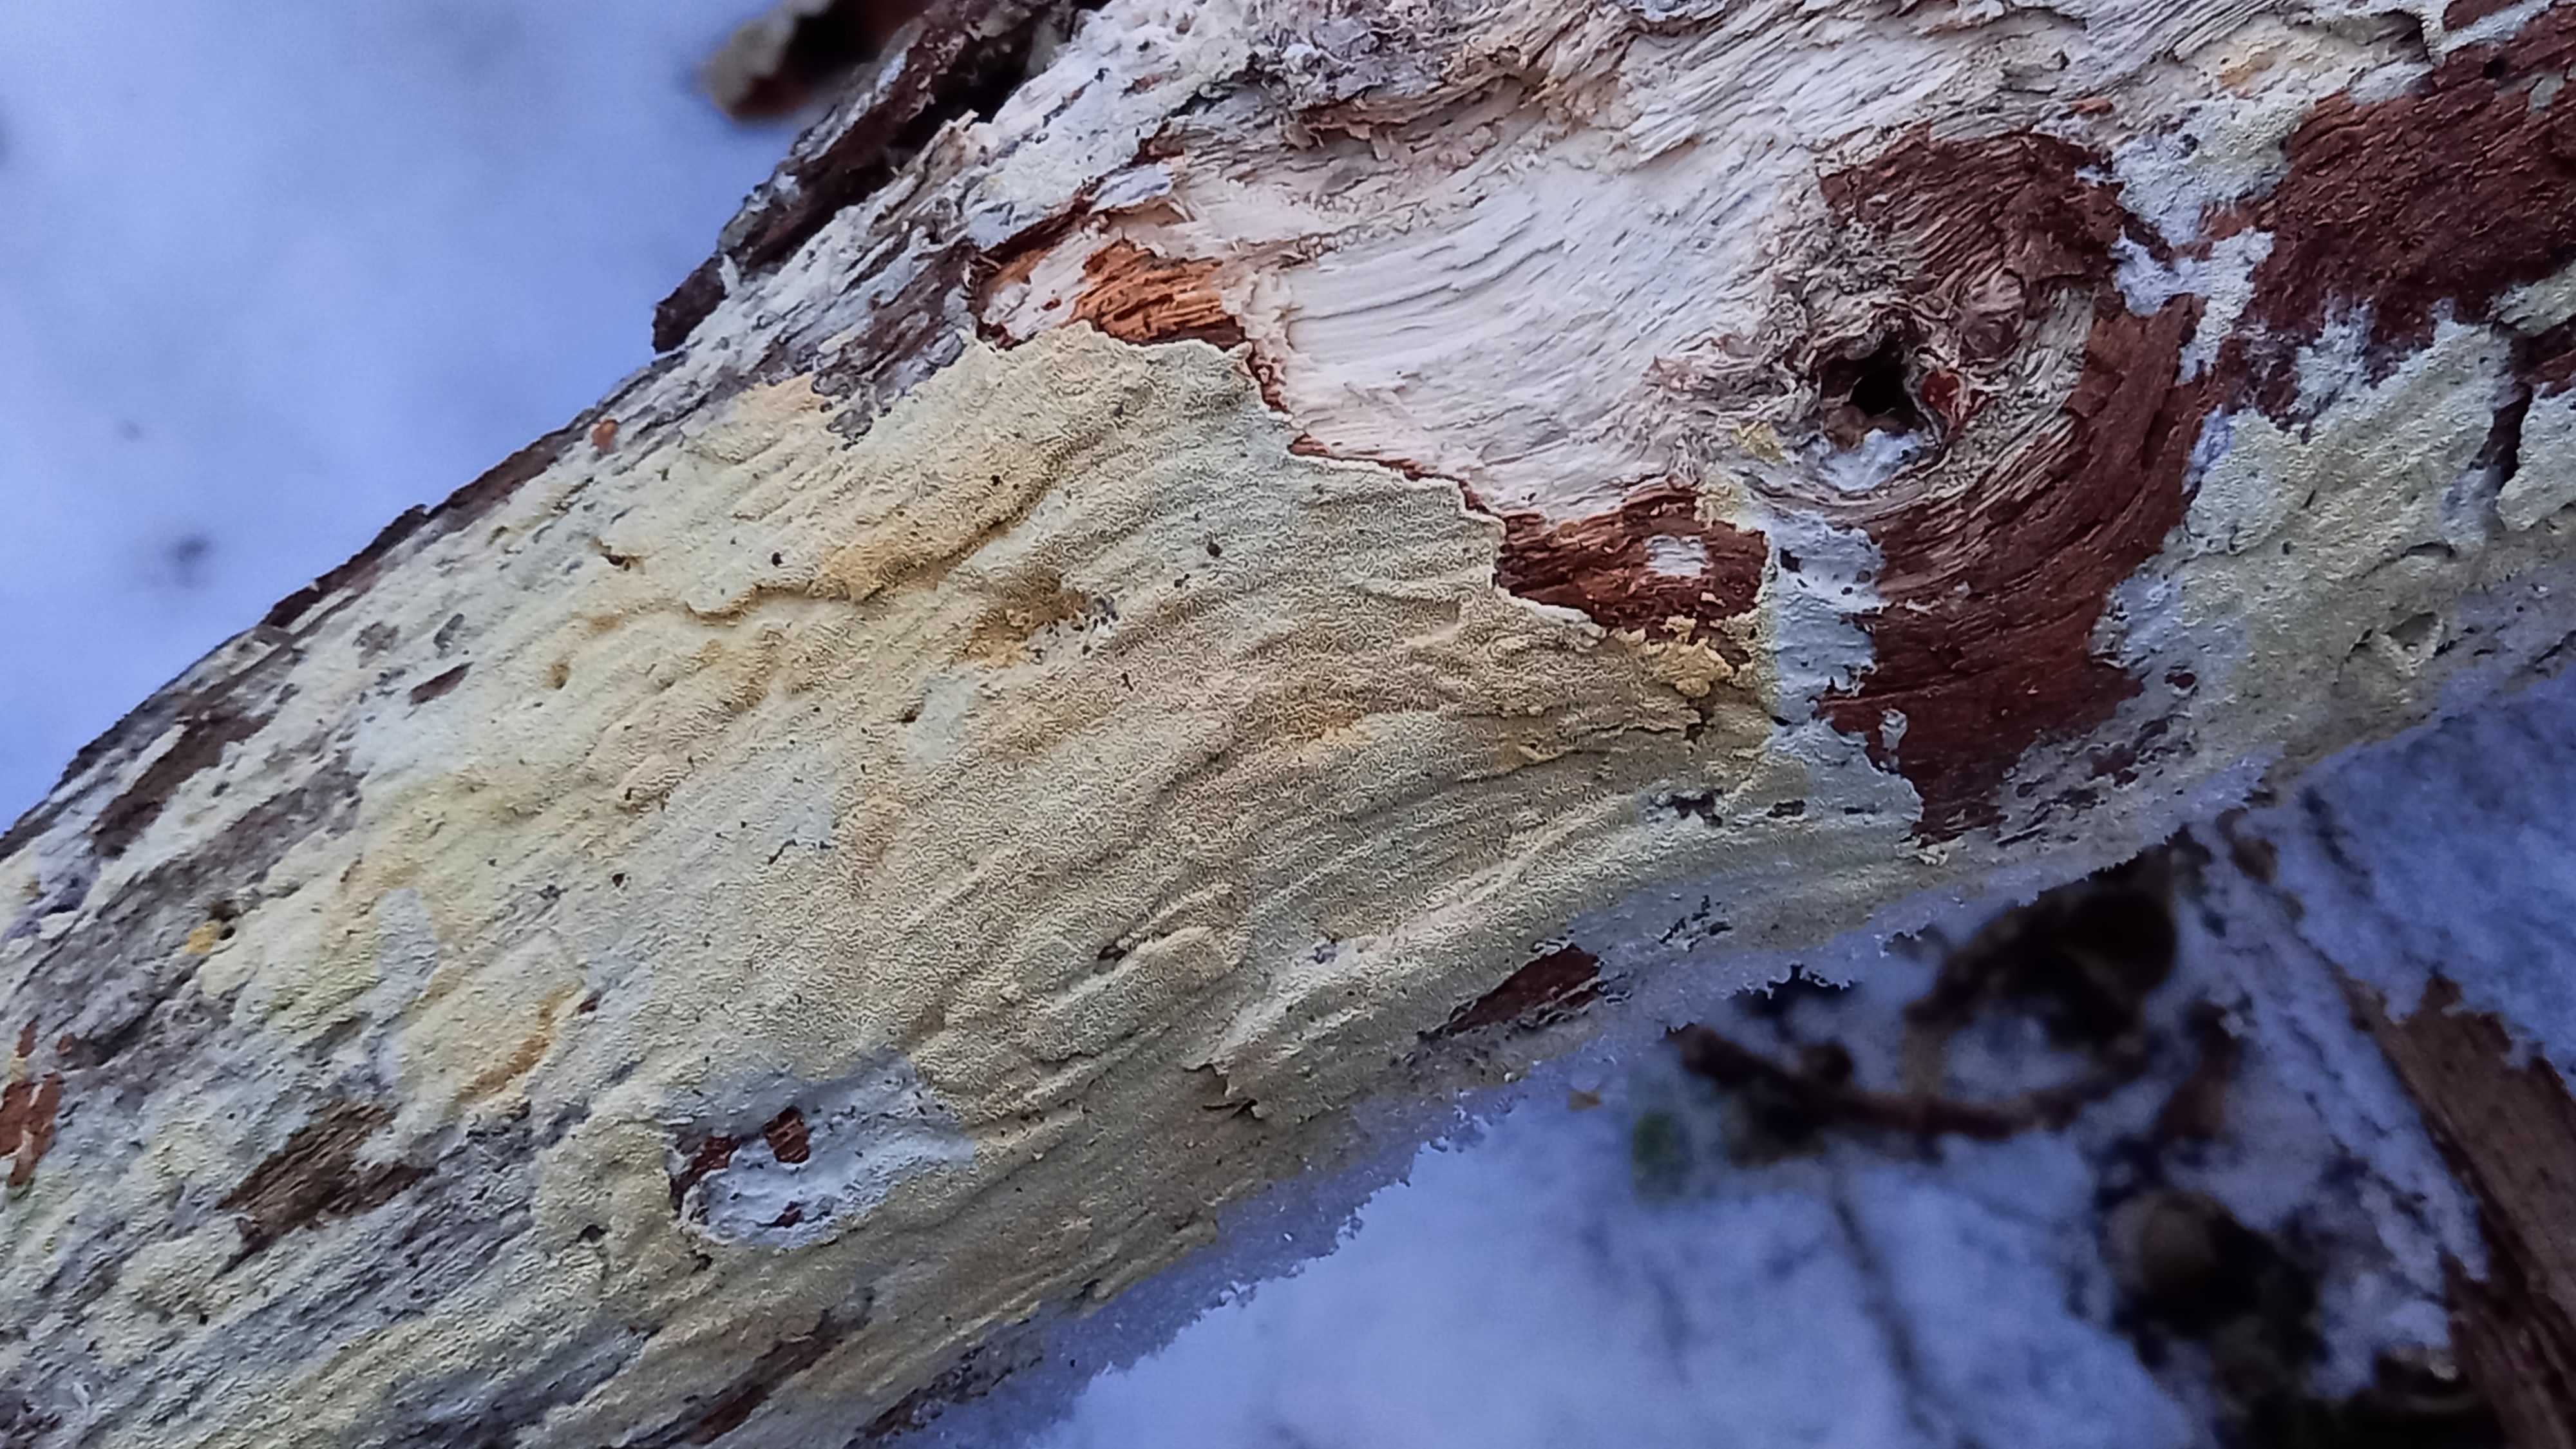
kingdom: Fungi
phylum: Basidiomycota
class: Agaricomycetes
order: Hymenochaetales
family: Schizoporaceae
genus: Xylodon
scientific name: Xylodon subtropicus
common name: labyrint-tandsvamp
